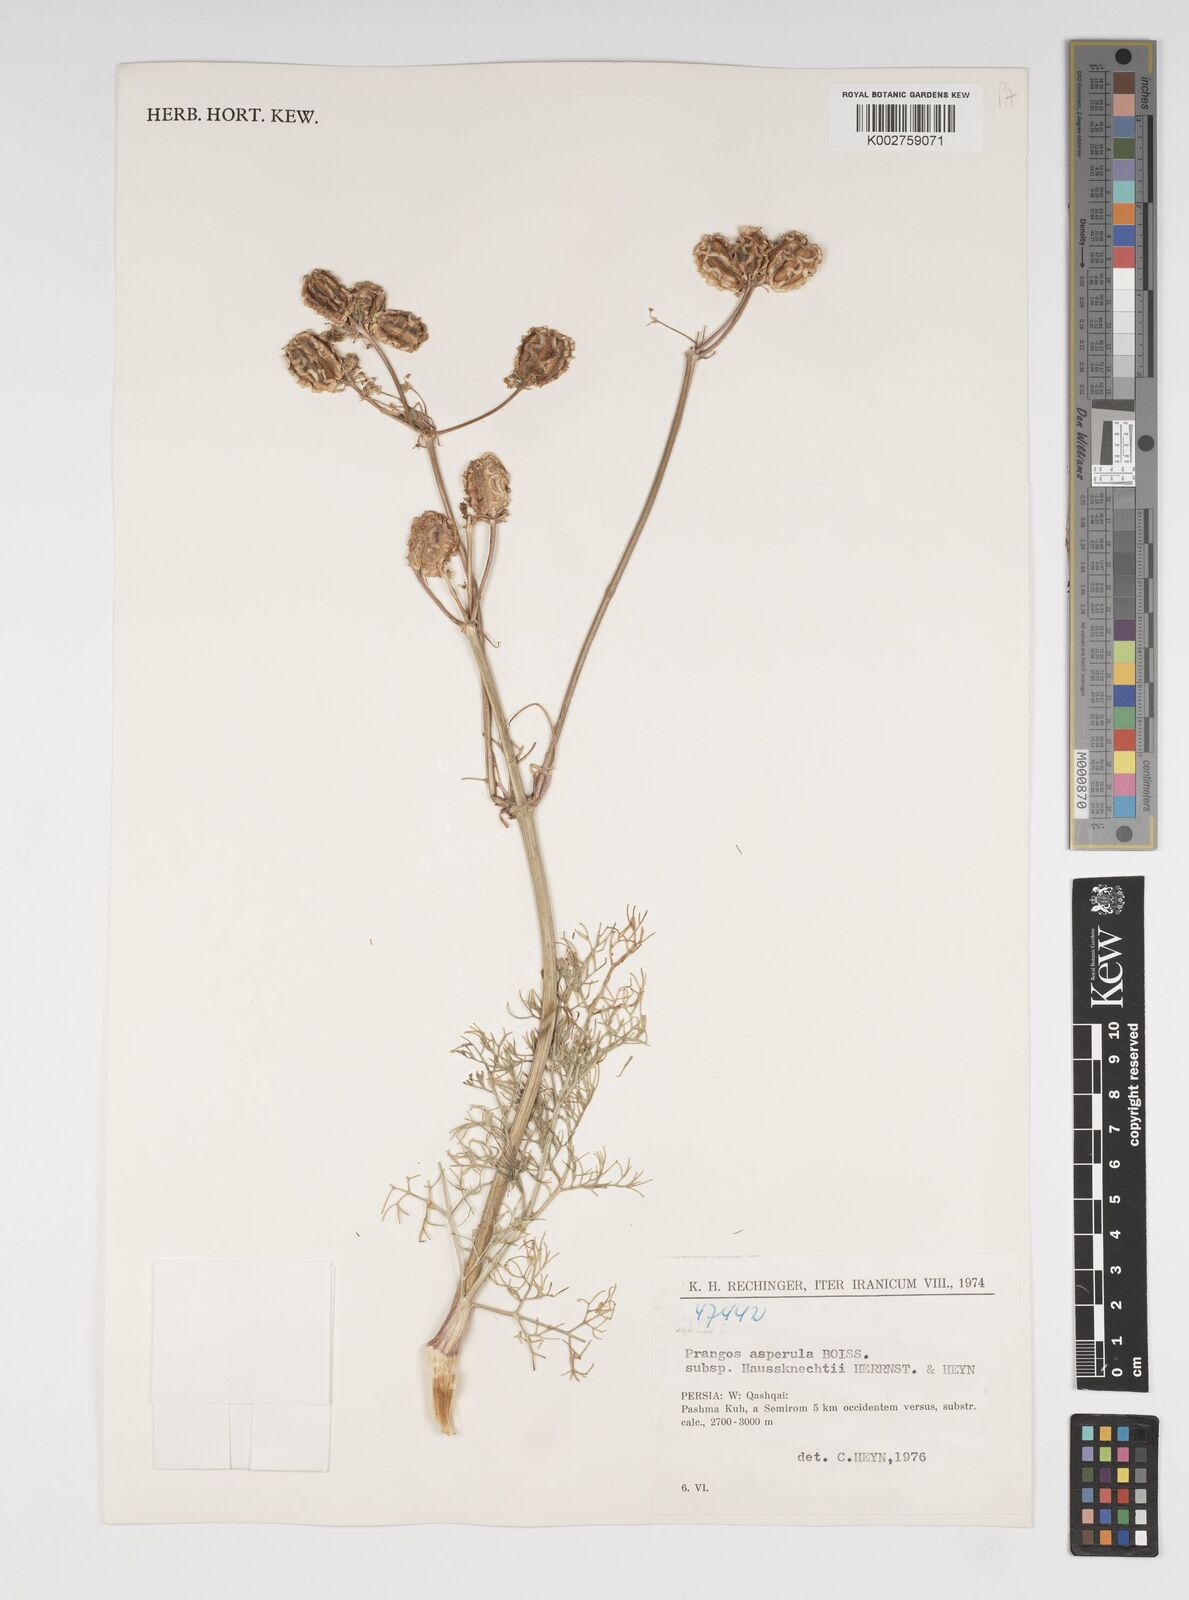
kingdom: Plantae
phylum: Tracheophyta
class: Magnoliopsida
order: Apiales
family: Apiaceae
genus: Prangos
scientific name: Prangos asperula
